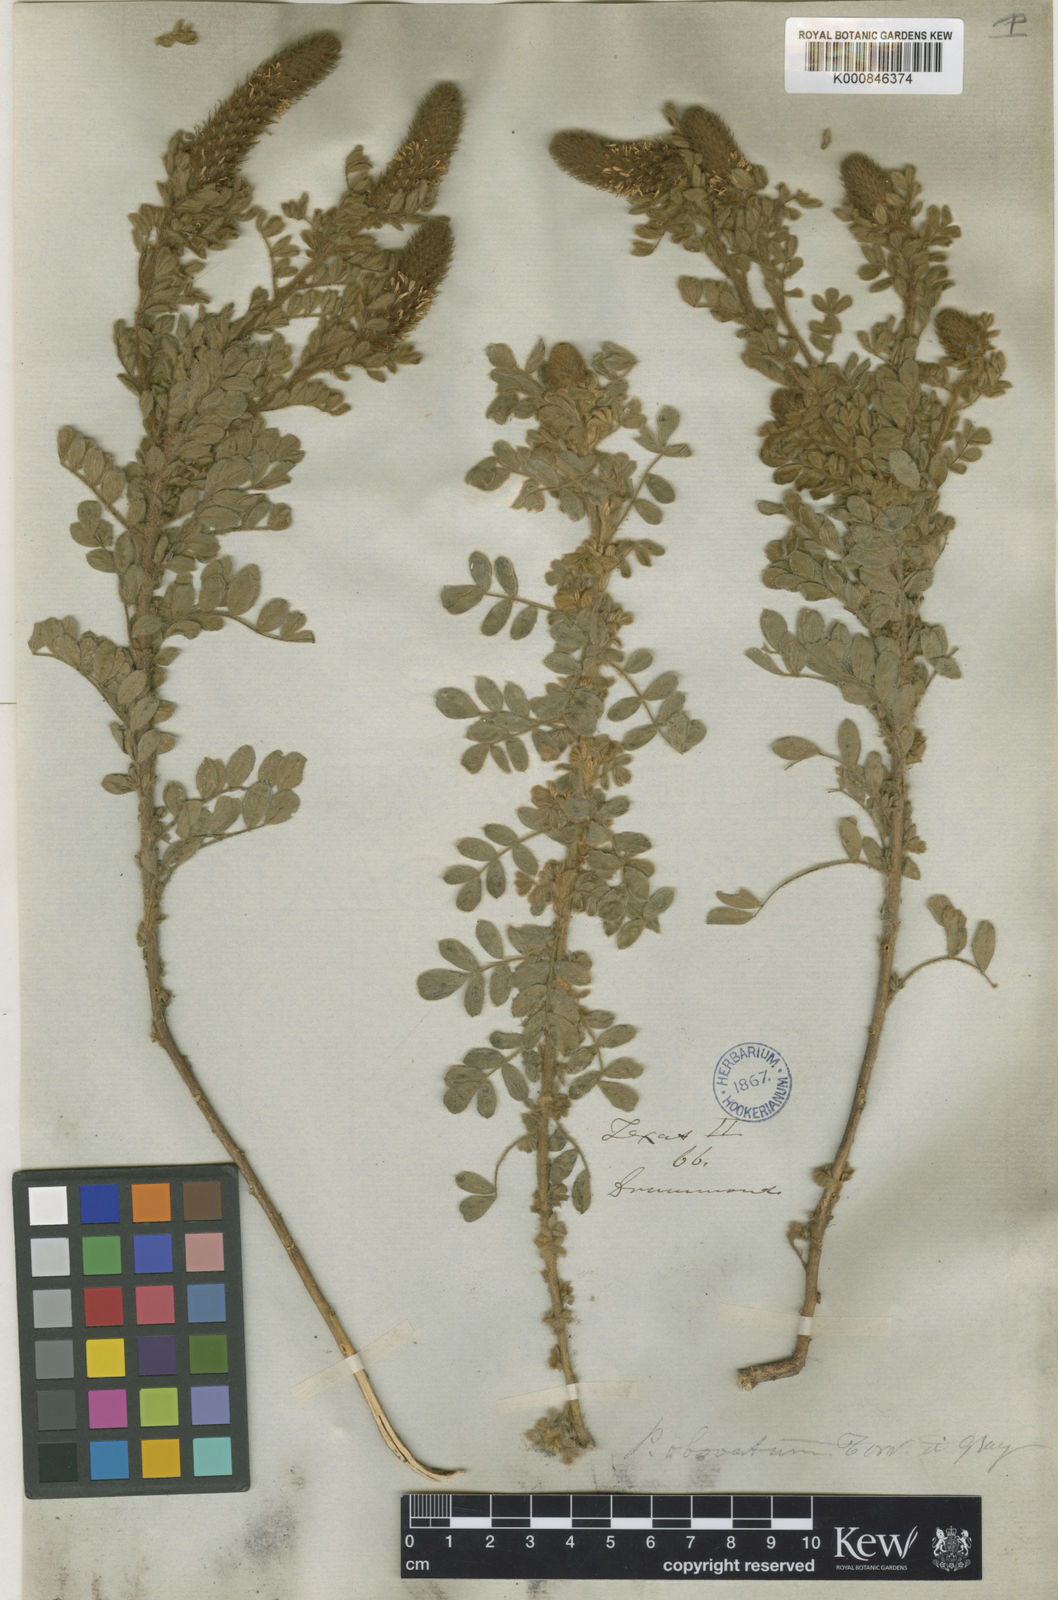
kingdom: Plantae
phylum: Tracheophyta
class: Magnoliopsida
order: Fabales
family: Fabaceae
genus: Dalea
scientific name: Dalea obovata
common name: Pussyfoot
